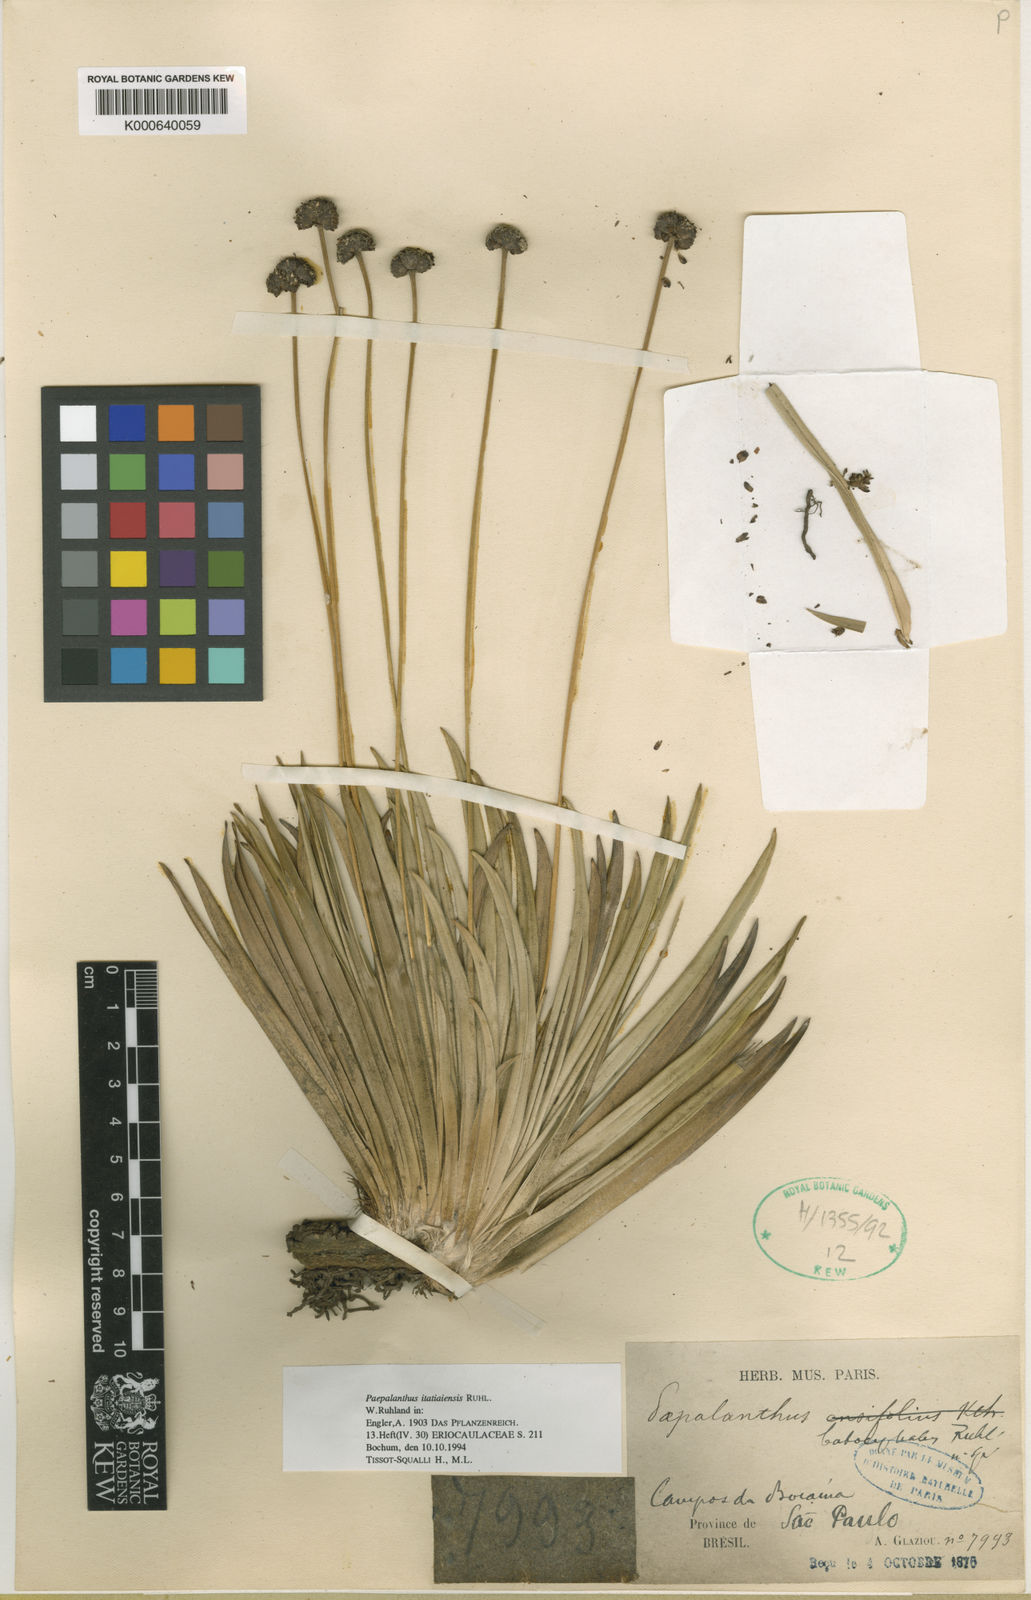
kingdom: Plantae
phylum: Tracheophyta
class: Liliopsida
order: Poales
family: Eriocaulaceae
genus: Paepalanthus
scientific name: Paepalanthus itatiaiensis
